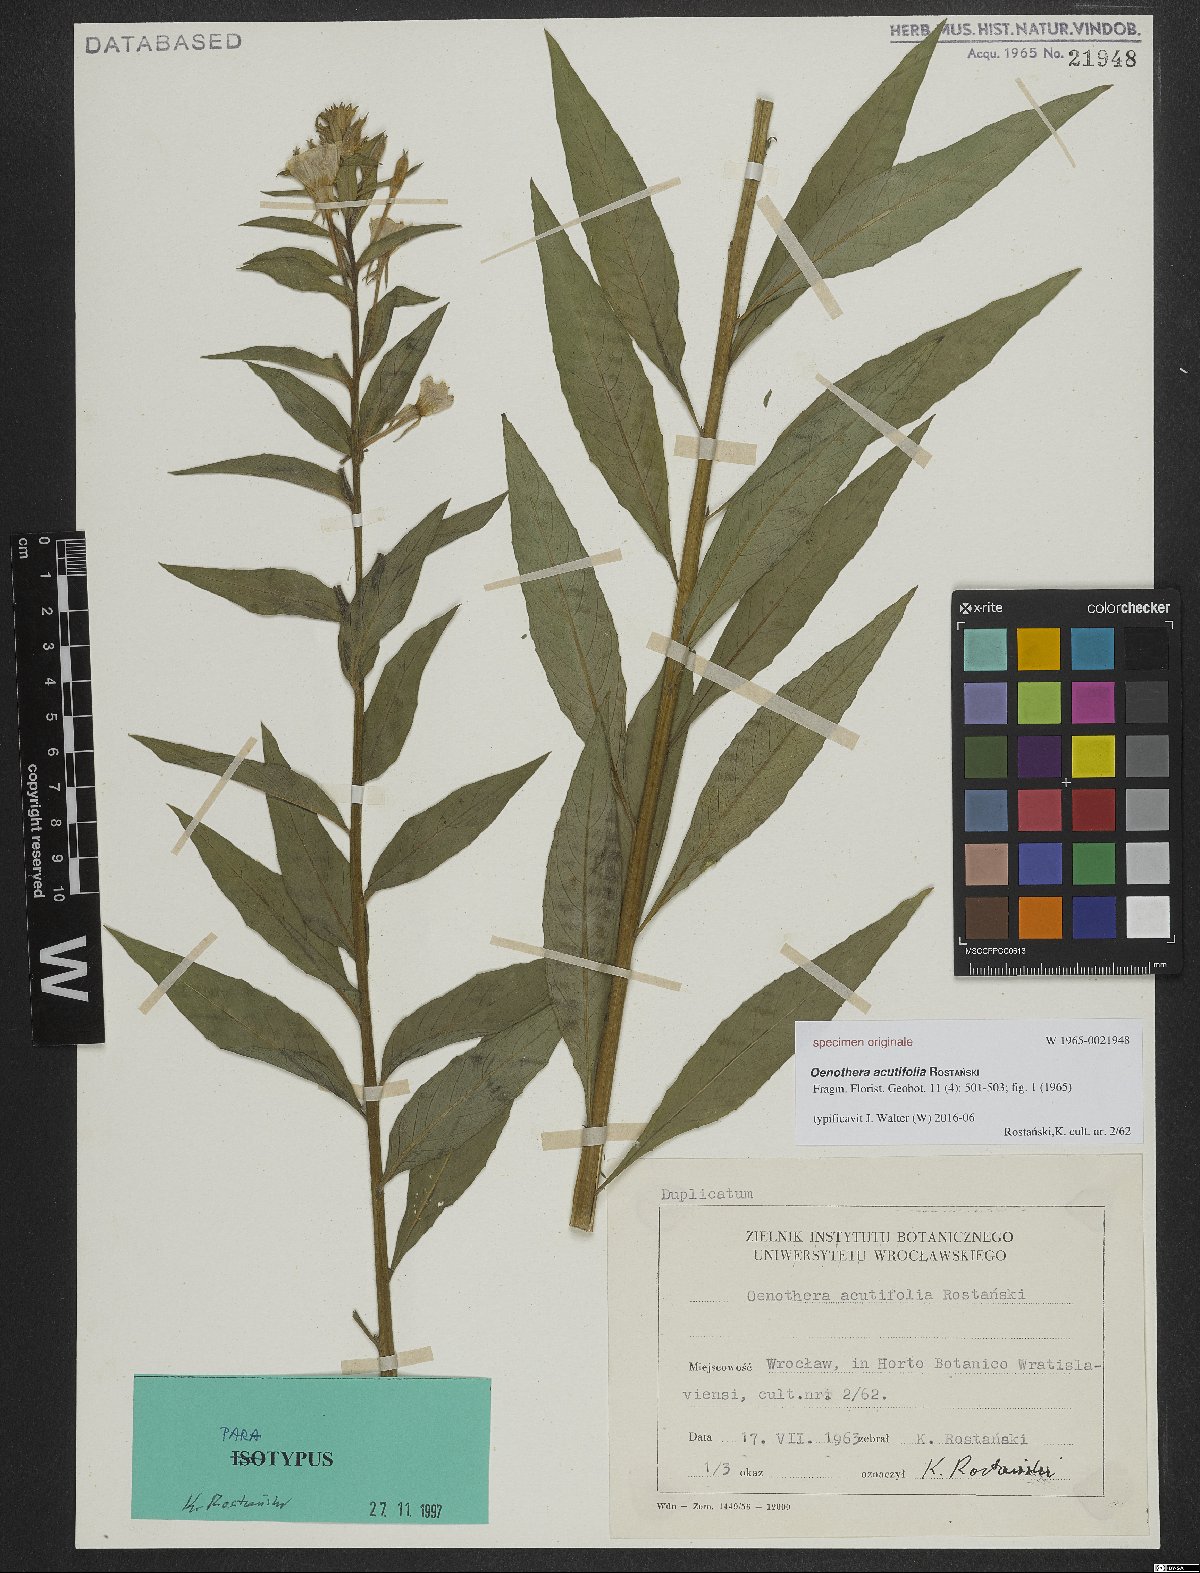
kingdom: Plantae
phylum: Tracheophyta
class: Magnoliopsida
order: Myrtales
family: Onagraceae
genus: Oenothera
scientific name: Oenothera acutifolia
